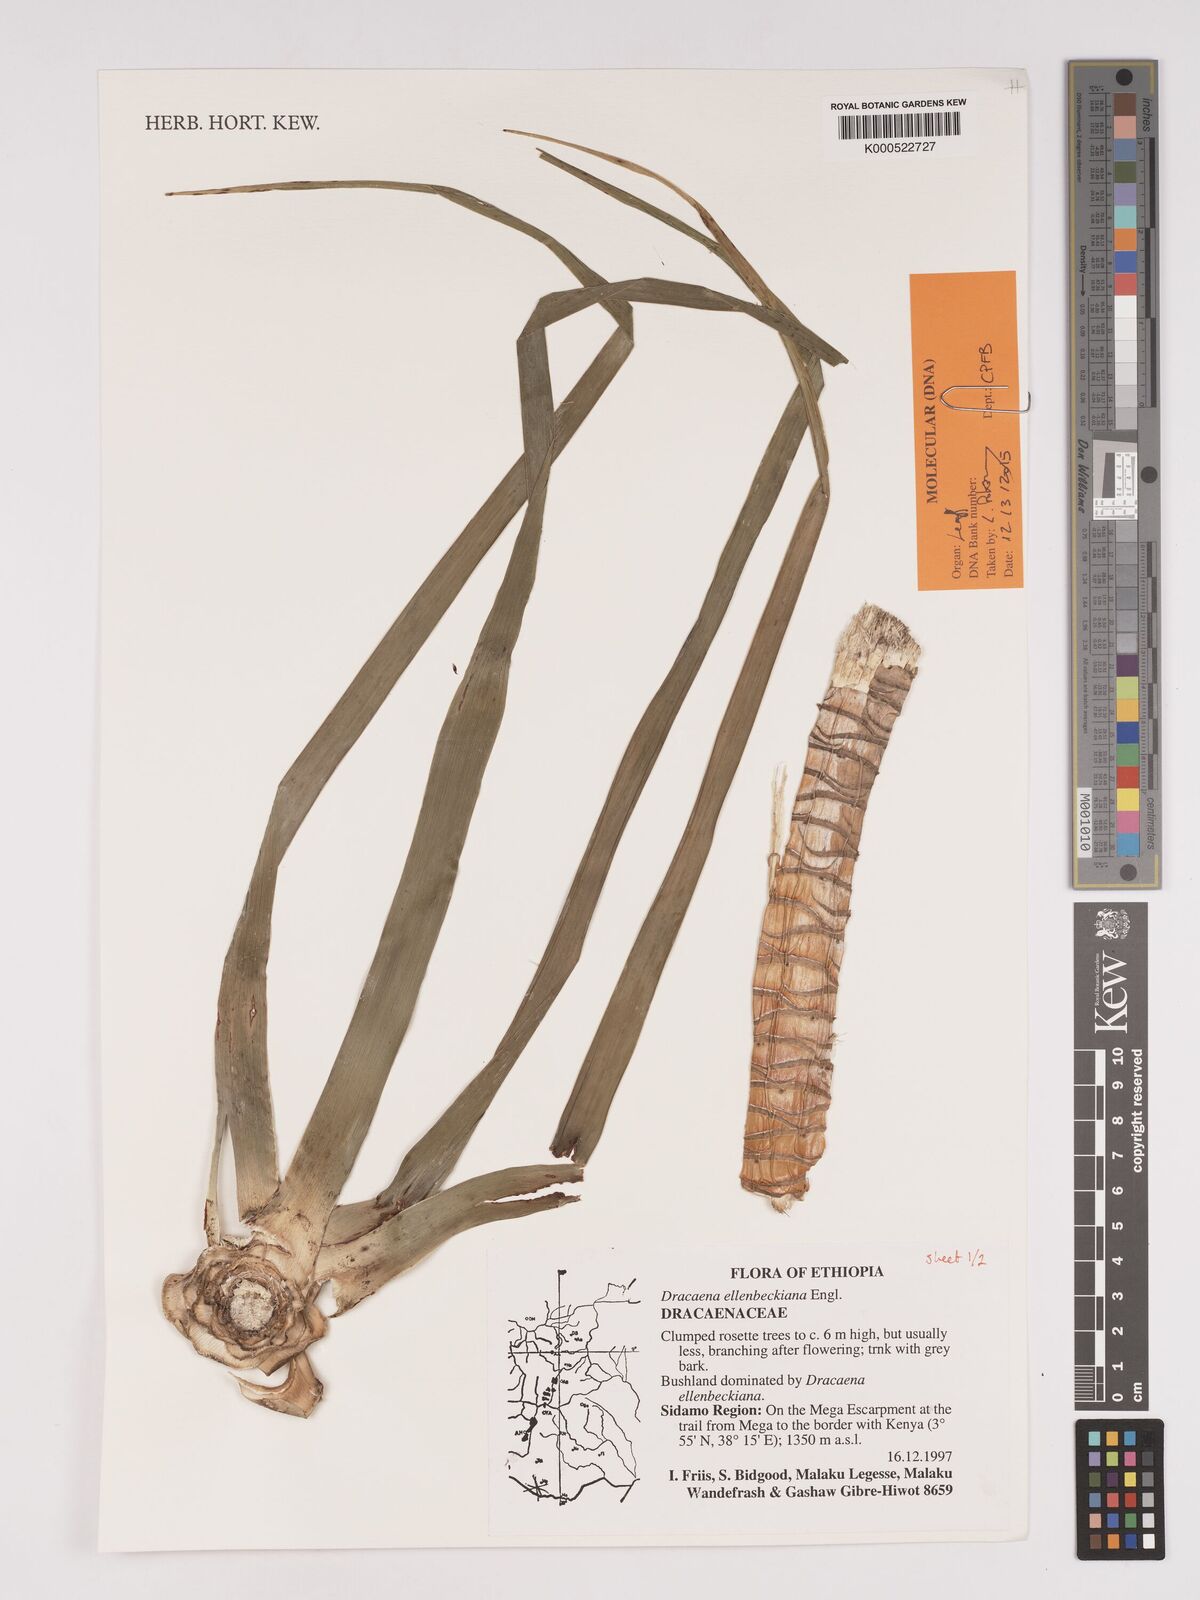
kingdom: Plantae
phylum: Tracheophyta
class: Liliopsida
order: Asparagales
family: Asparagaceae
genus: Dracaena
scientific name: Dracaena elliptica
